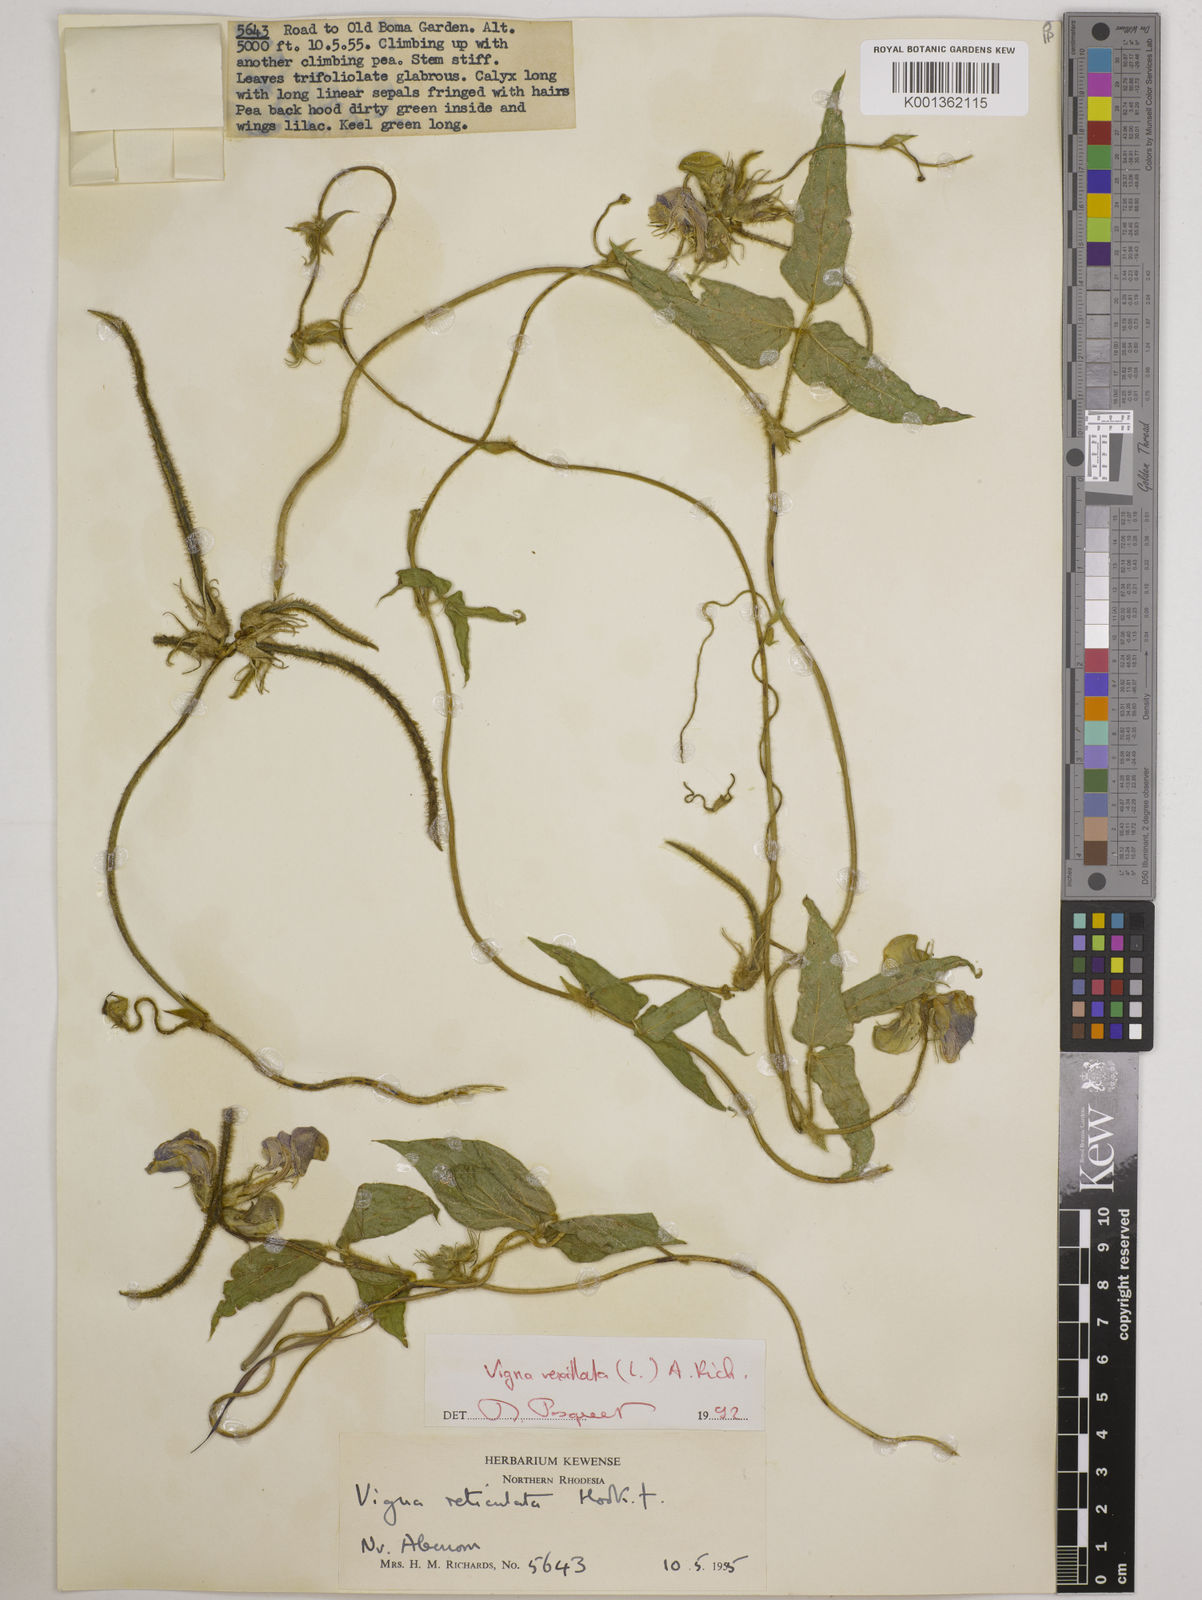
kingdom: Plantae
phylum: Tracheophyta
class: Magnoliopsida
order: Fabales
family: Fabaceae
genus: Vigna
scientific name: Vigna vexillata
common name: Zombi pea
